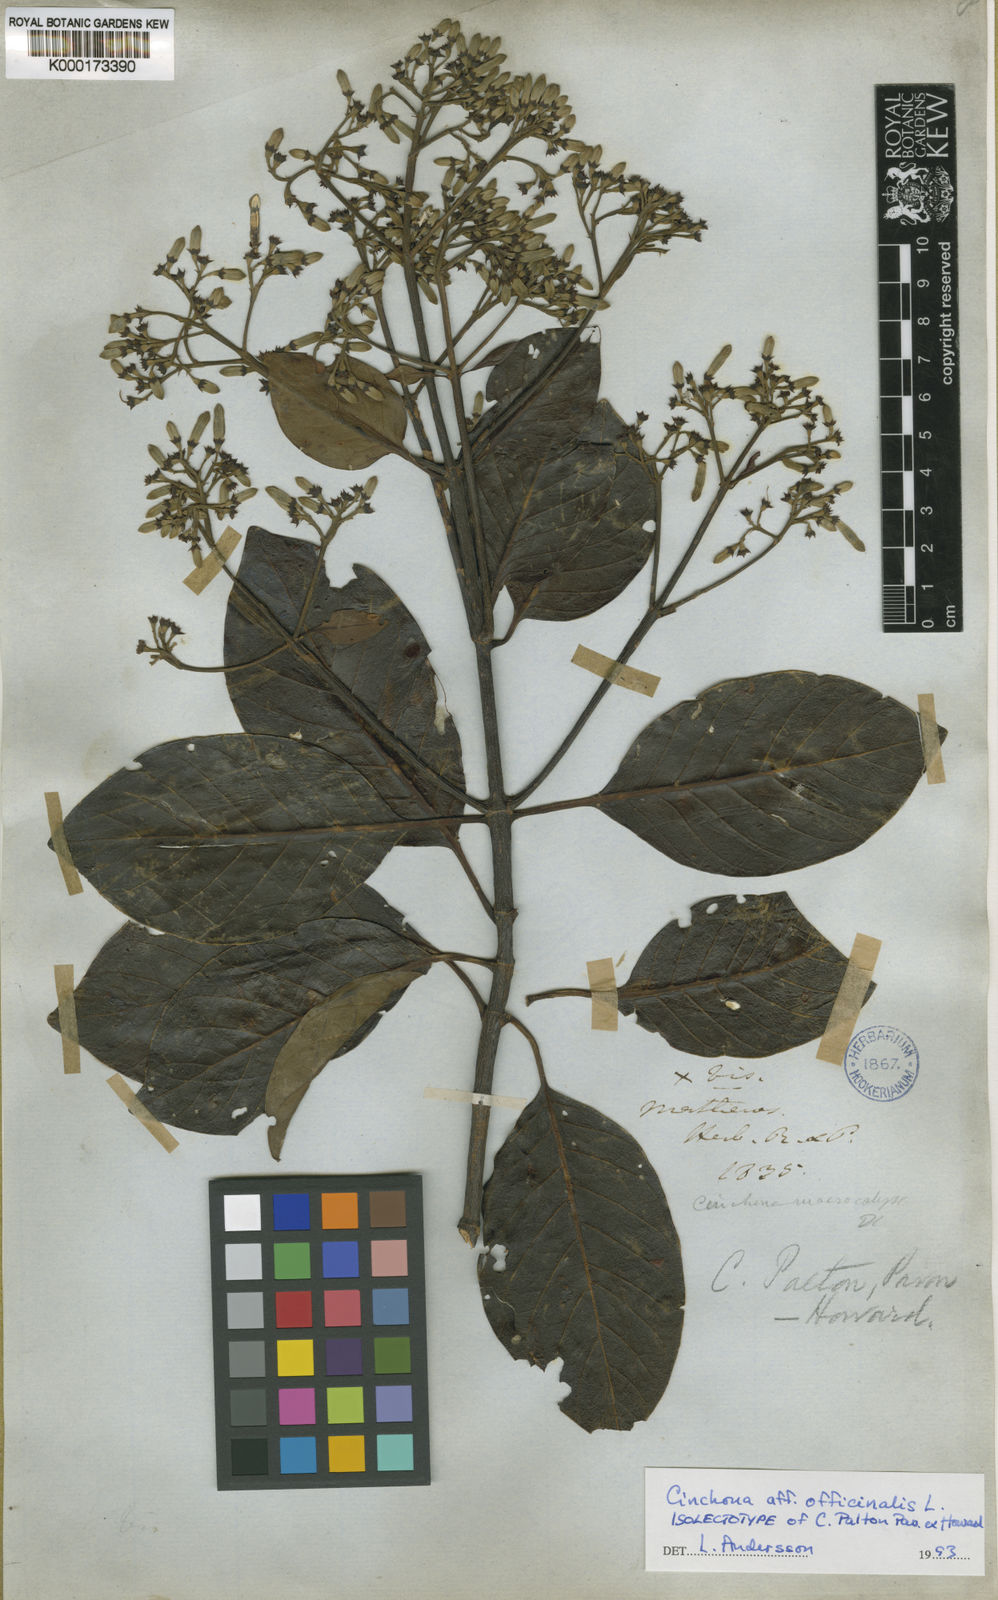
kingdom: Plantae
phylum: Tracheophyta
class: Magnoliopsida
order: Gentianales
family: Rubiaceae
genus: Cinchona
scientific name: Cinchona officinalis
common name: Lojabark
